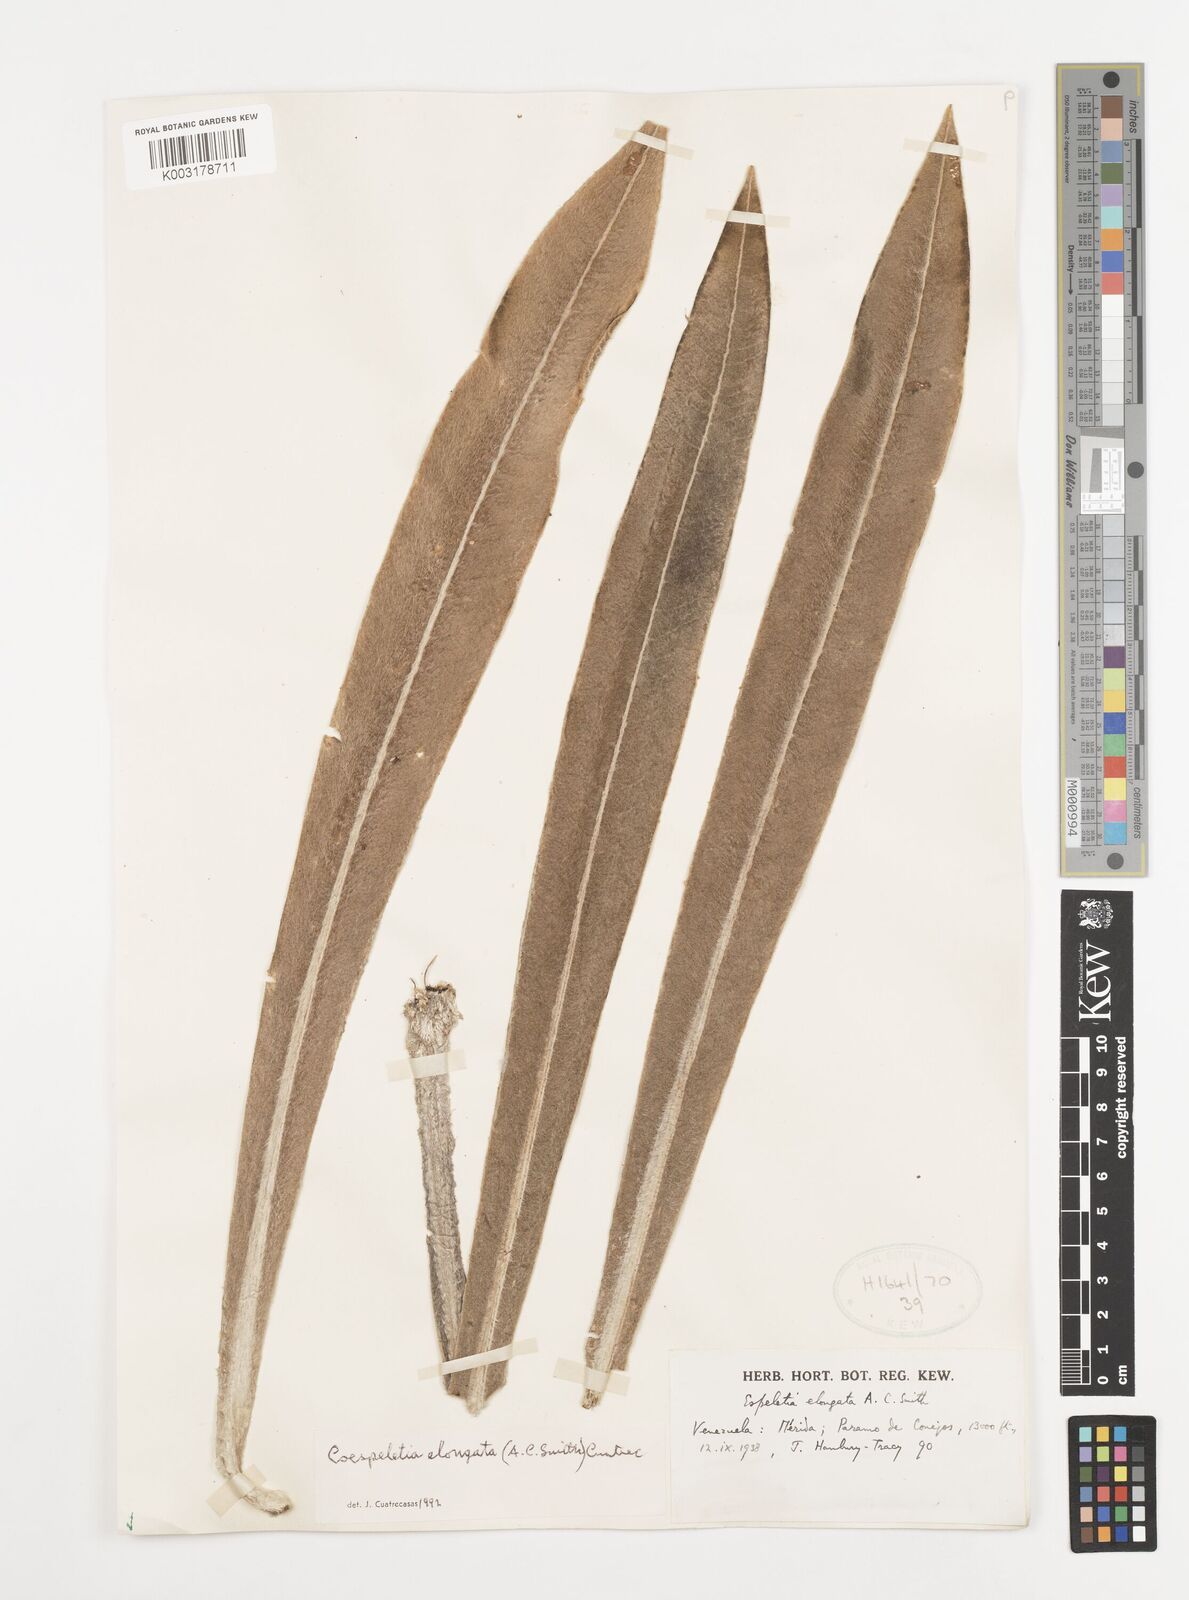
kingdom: Plantae
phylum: Tracheophyta
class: Magnoliopsida
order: Asterales
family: Asteraceae
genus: Espeletia
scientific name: Espeletia elongata
